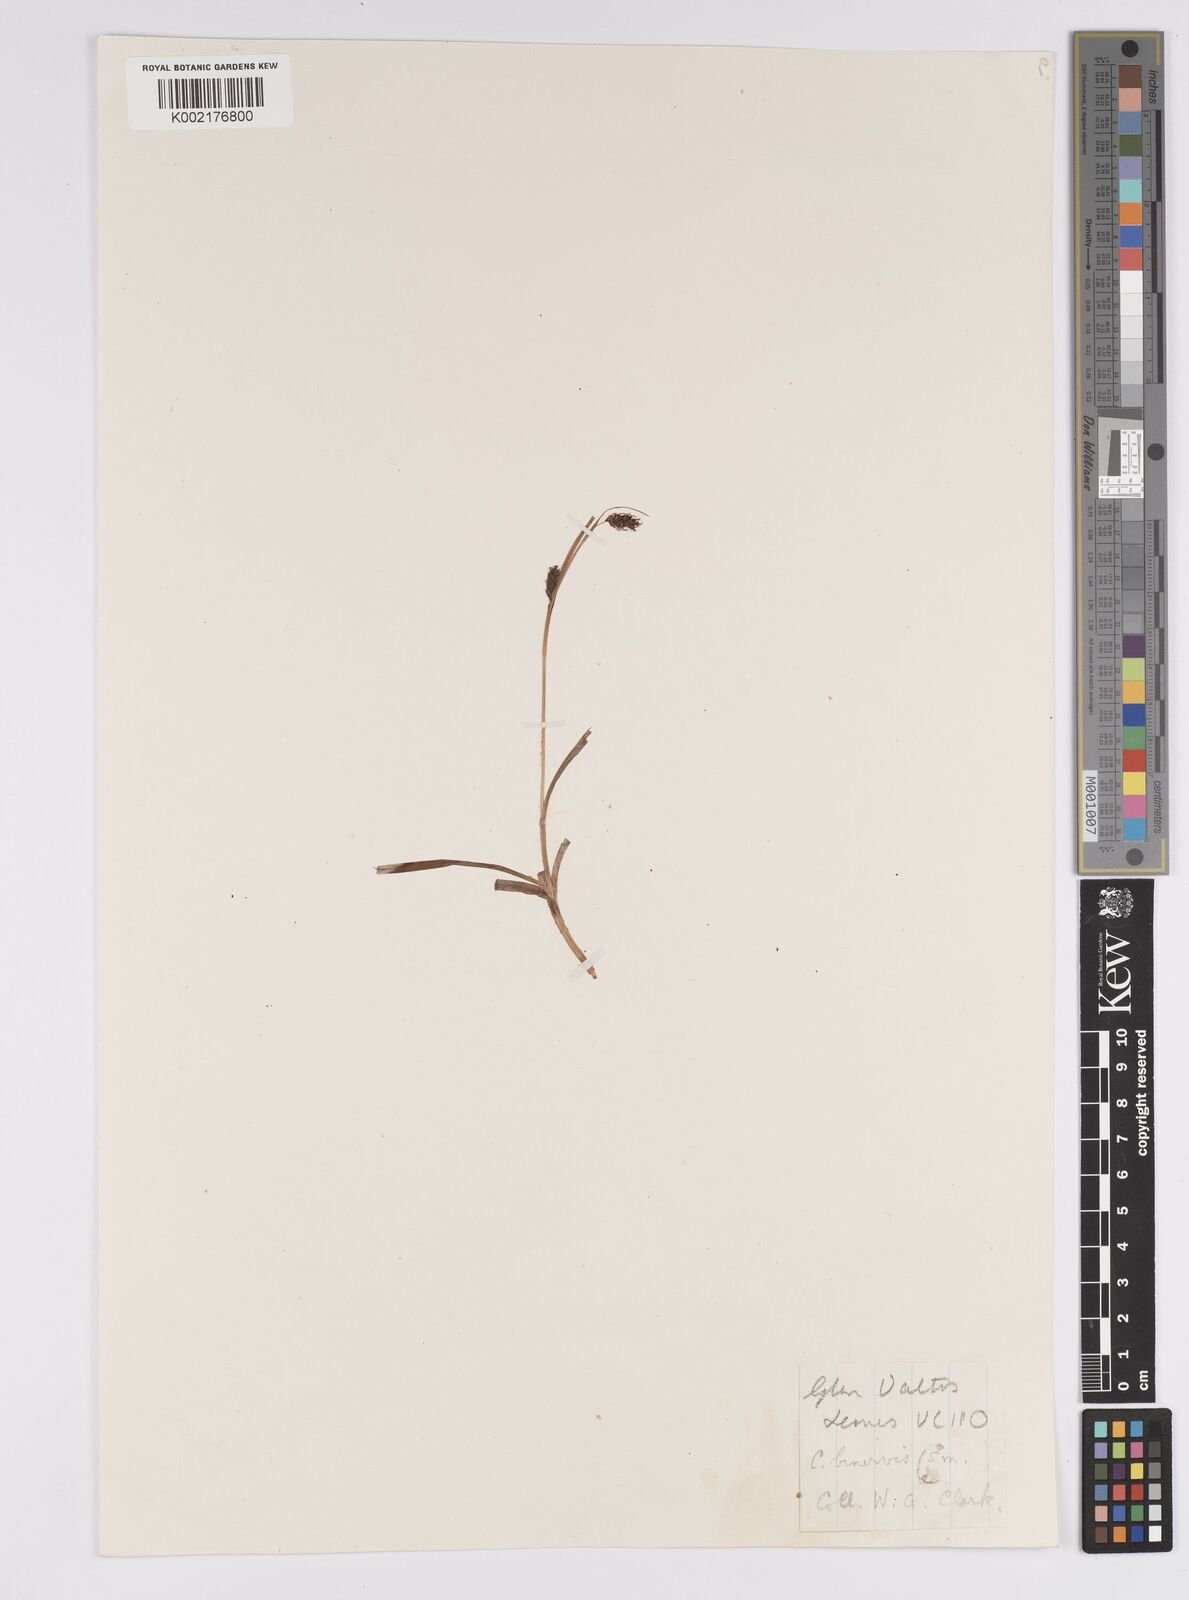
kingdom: Plantae
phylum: Tracheophyta
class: Liliopsida
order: Poales
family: Cyperaceae
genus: Carex
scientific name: Carex binervis
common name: Green-ribbed sedge
